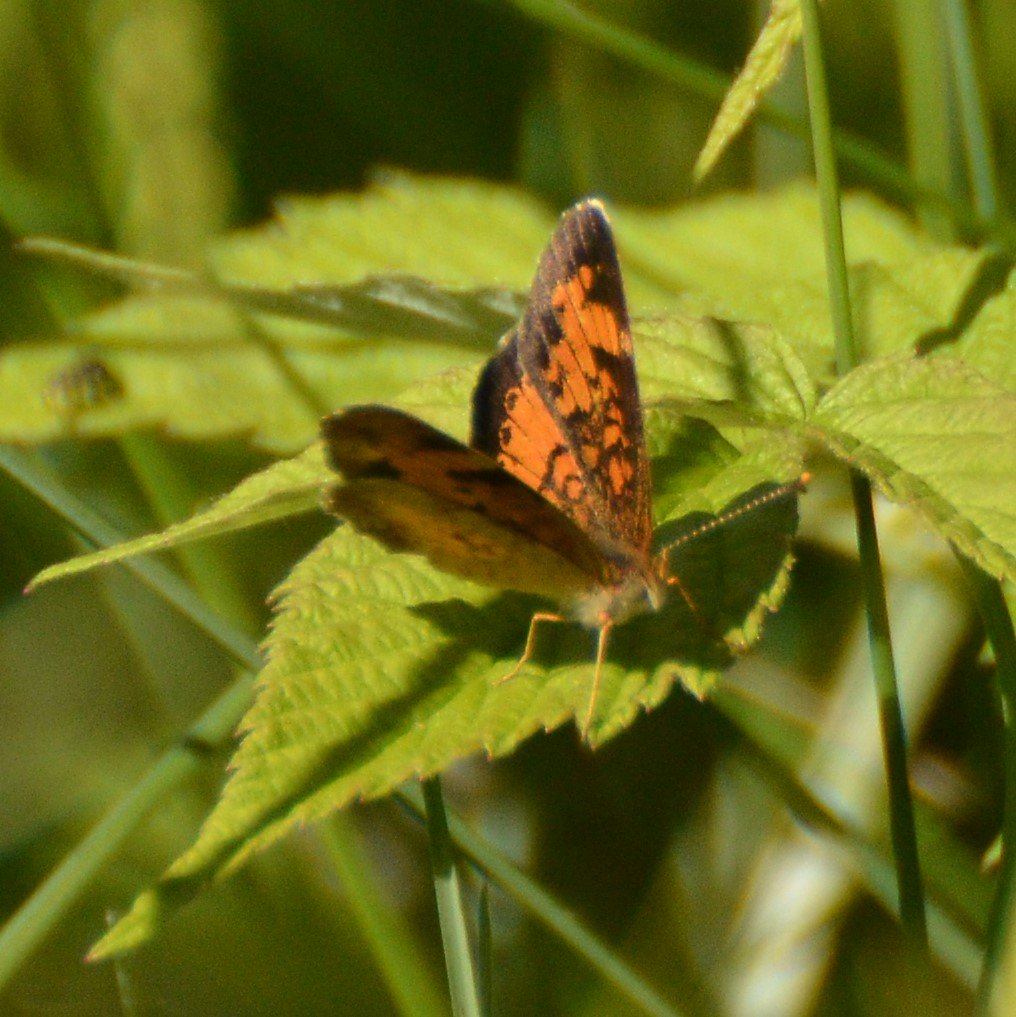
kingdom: Animalia
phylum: Arthropoda
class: Insecta
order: Lepidoptera
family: Nymphalidae
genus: Phyciodes
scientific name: Phyciodes tharos
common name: Northern Crescent
